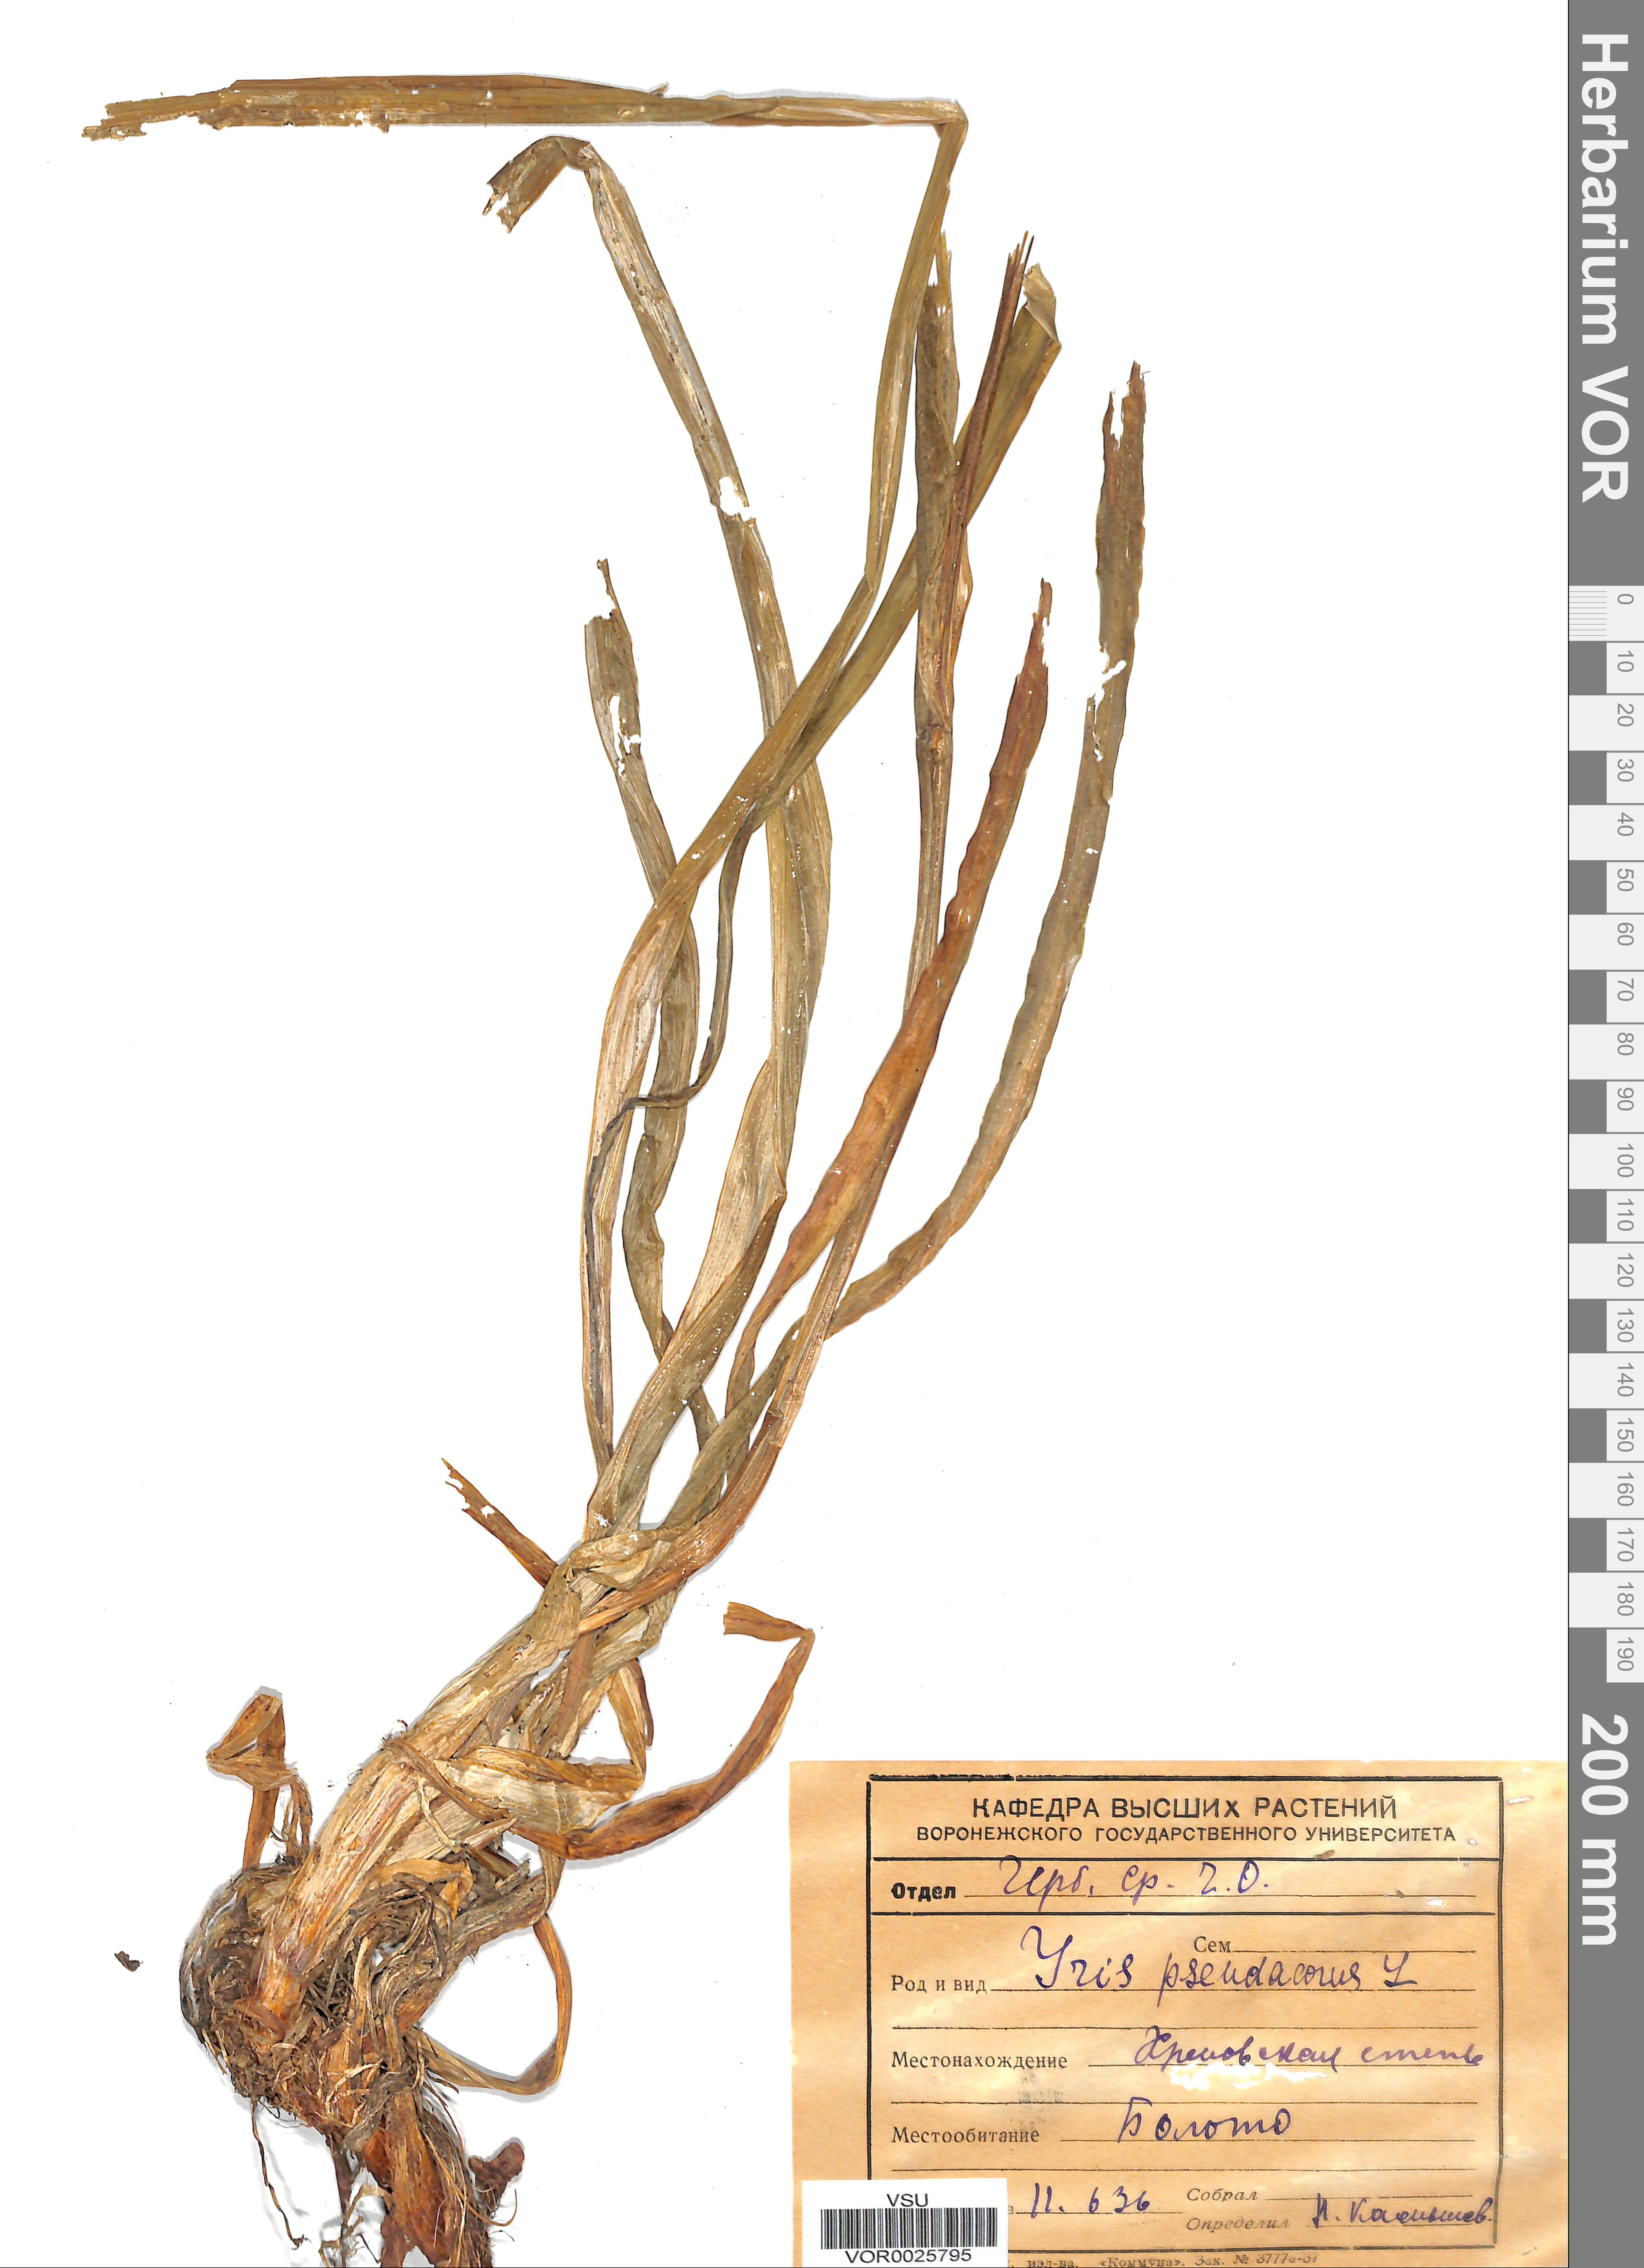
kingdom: Plantae
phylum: Tracheophyta
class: Liliopsida
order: Asparagales
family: Iridaceae
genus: Iris
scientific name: Iris pseudacorus
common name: Yellow flag
